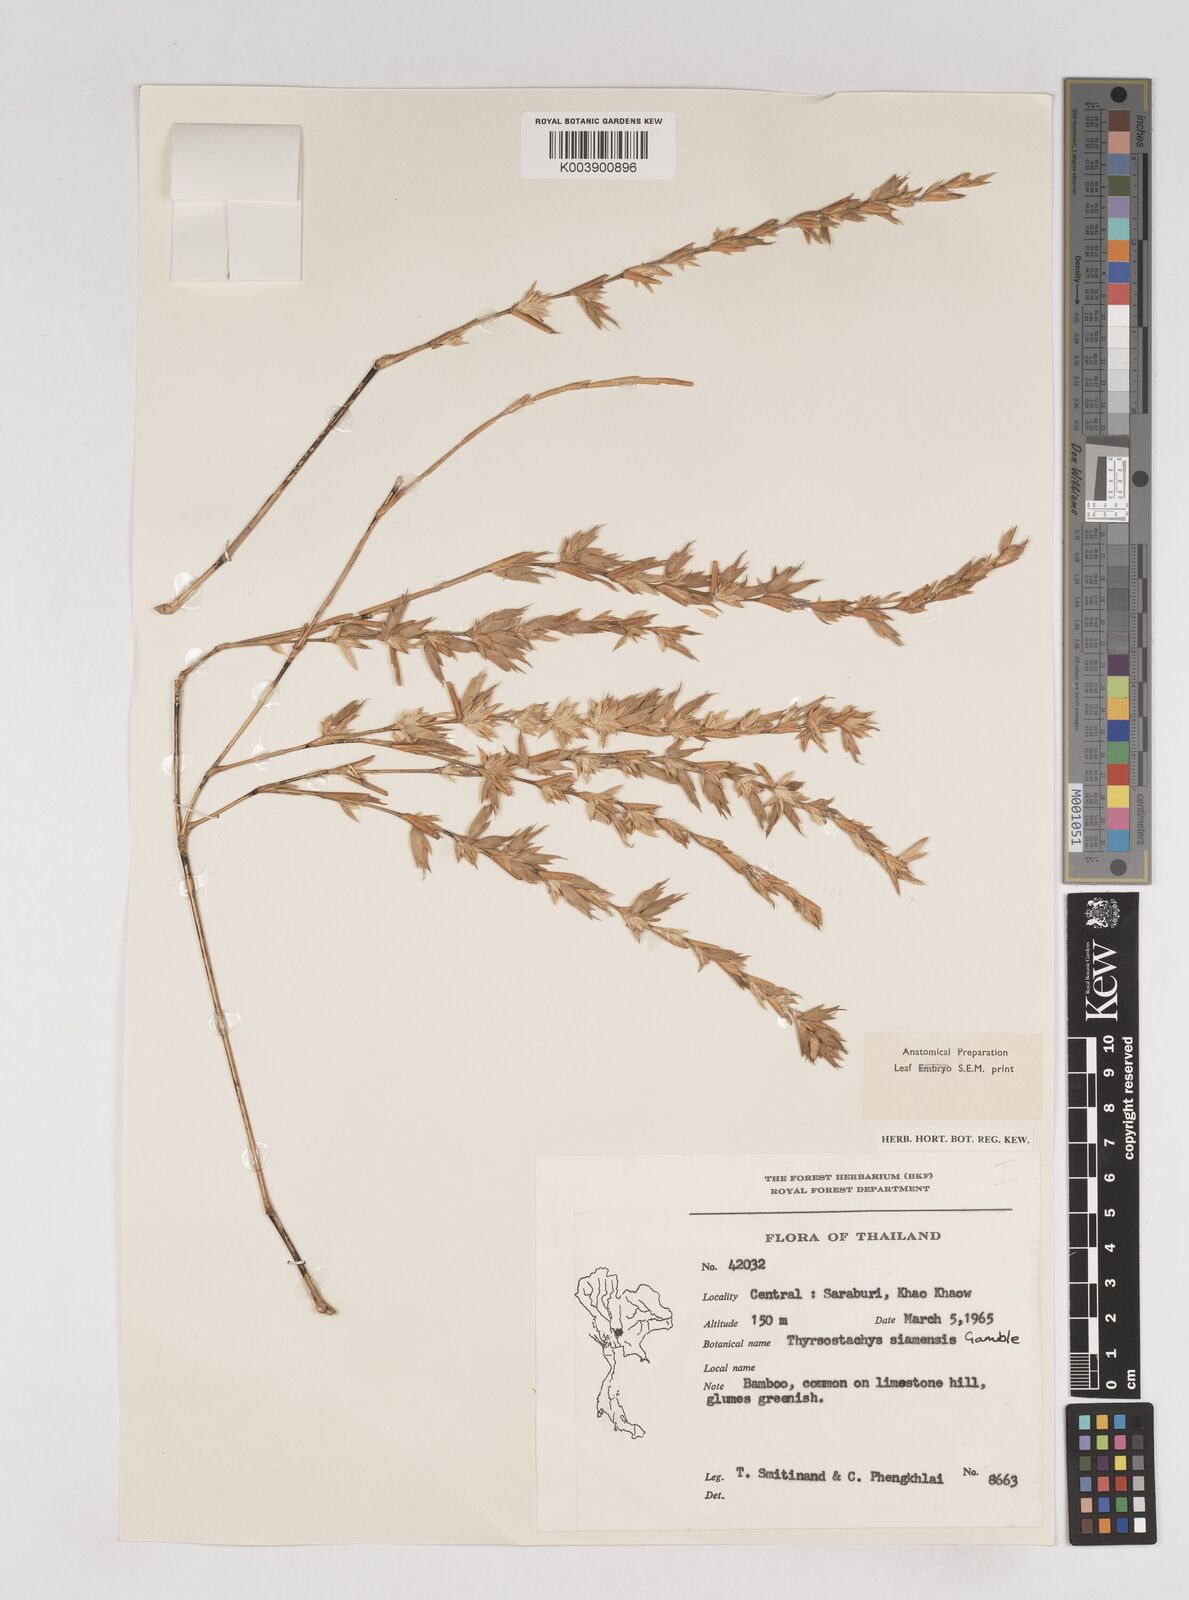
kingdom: Plantae
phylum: Tracheophyta
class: Liliopsida
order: Poales
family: Poaceae
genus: Thyrsostachys
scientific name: Thyrsostachys siamensis
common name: Thailand bamboo
